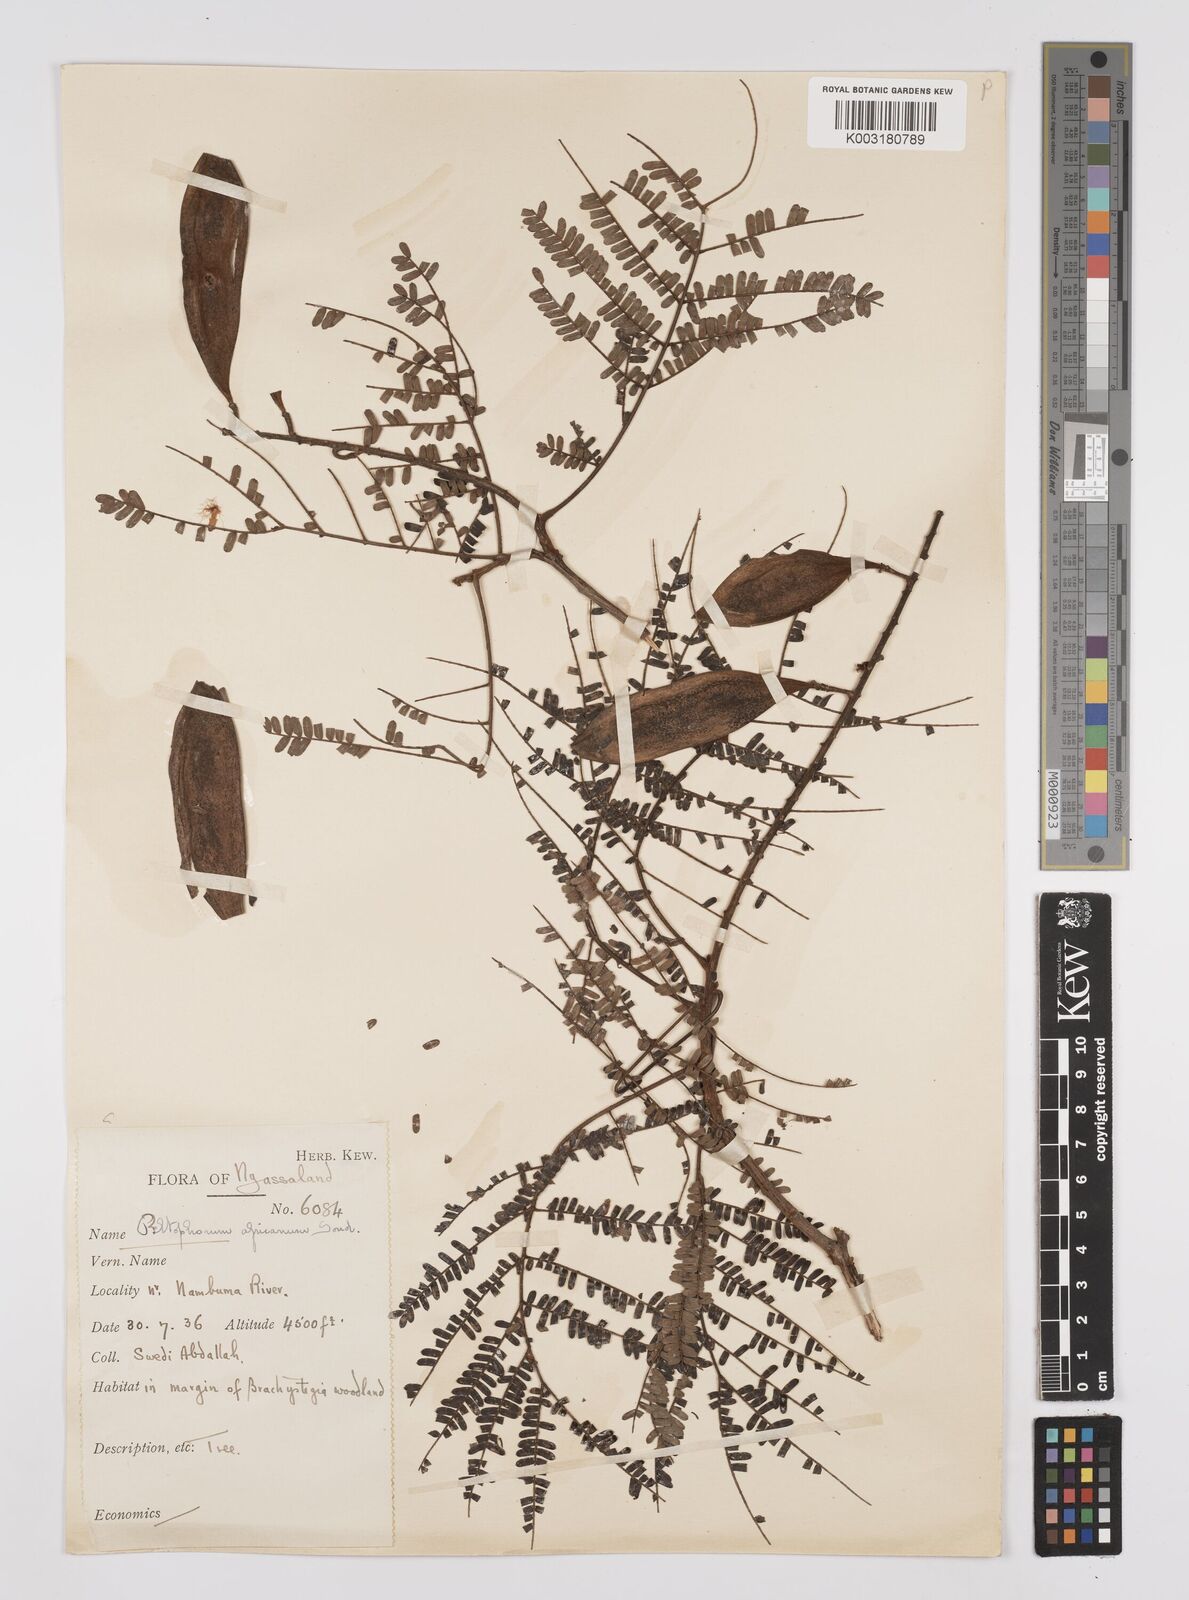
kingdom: Plantae
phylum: Tracheophyta
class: Magnoliopsida
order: Fabales
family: Fabaceae
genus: Peltophorum
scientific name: Peltophorum africanum
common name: African black wattle
